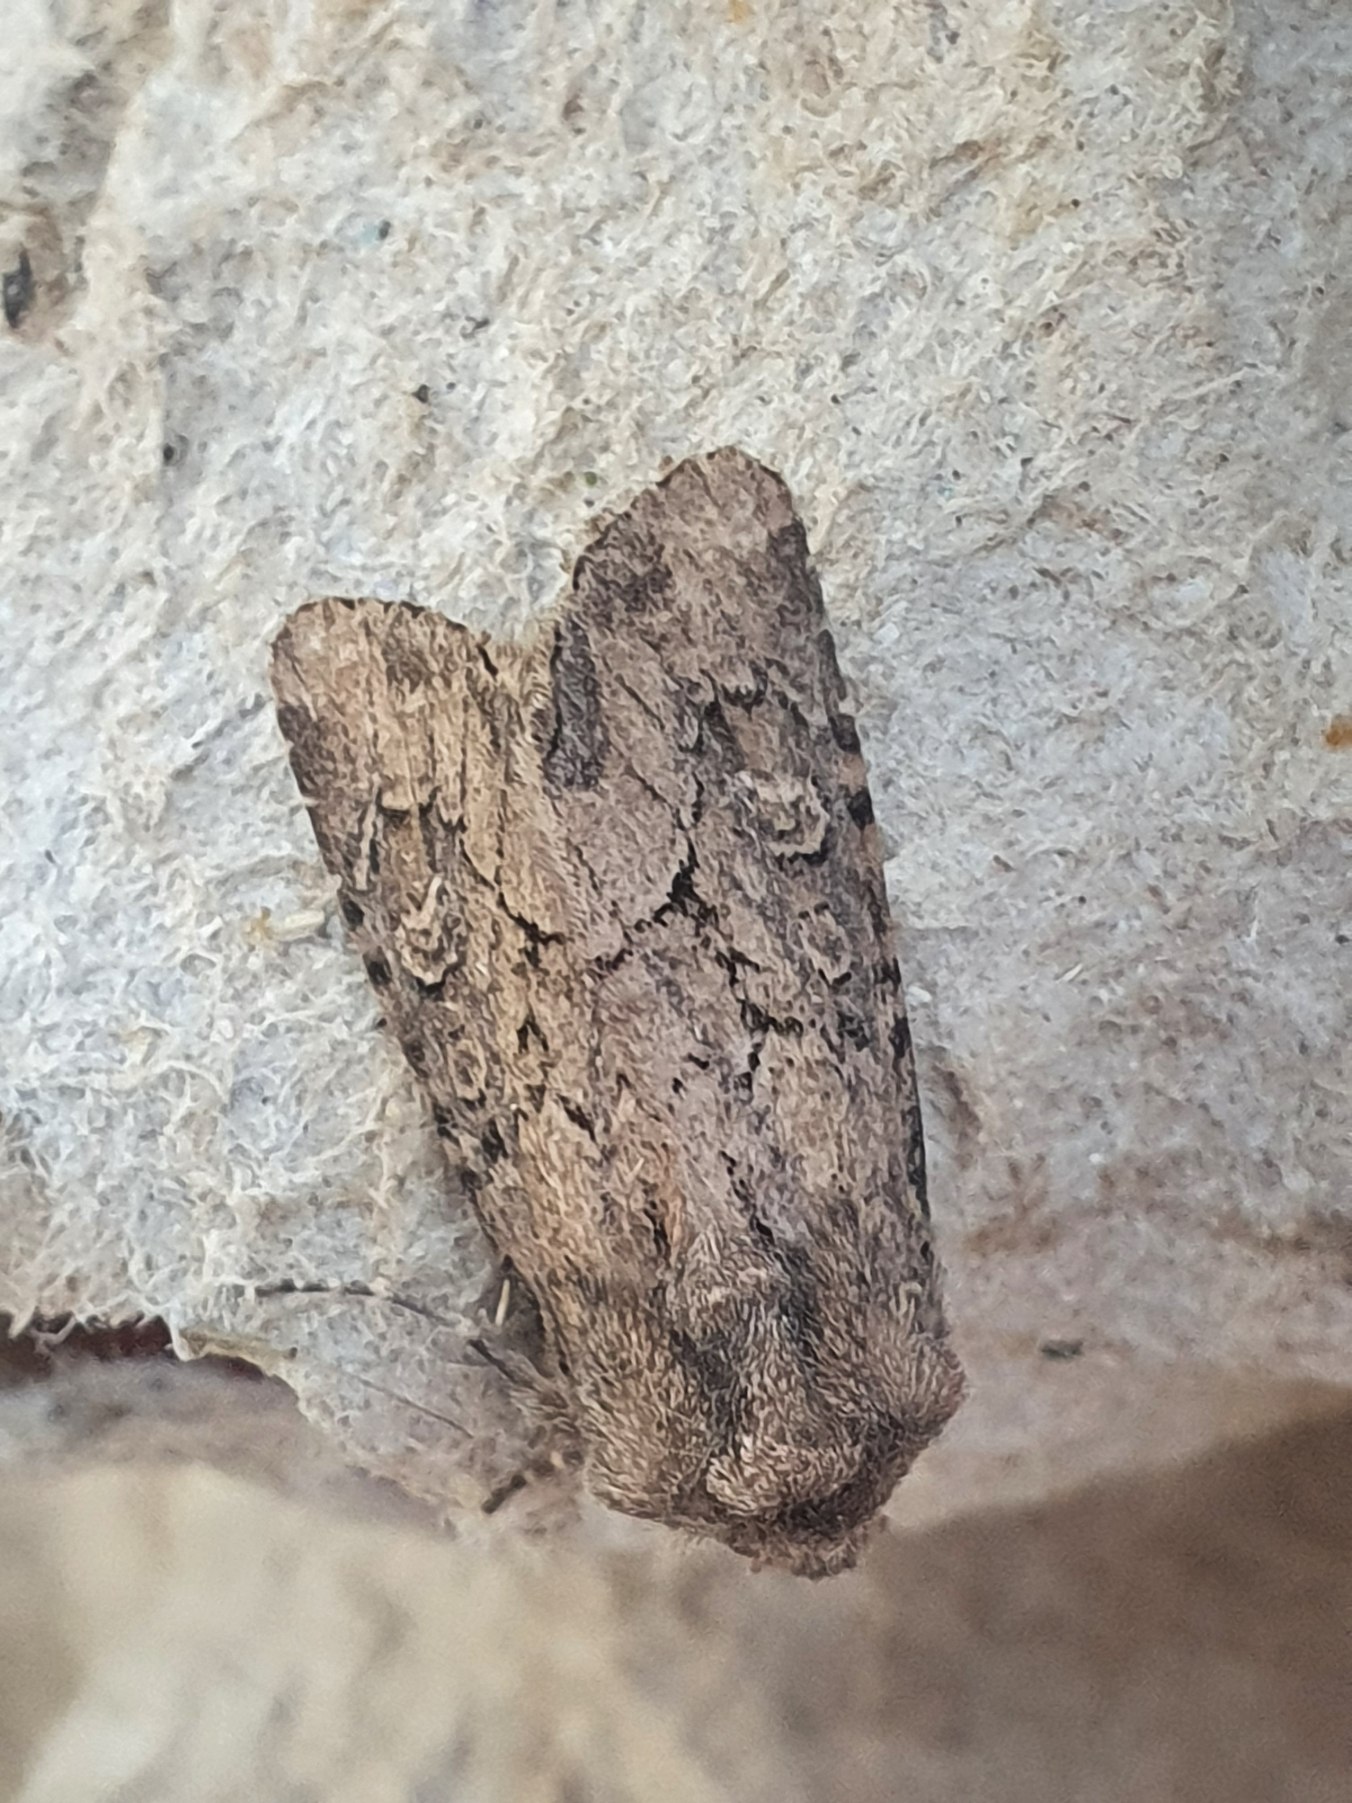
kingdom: Animalia
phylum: Arthropoda
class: Insecta
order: Lepidoptera
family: Noctuidae
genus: Luperina
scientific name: Luperina testacea
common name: Frøgræsugle
